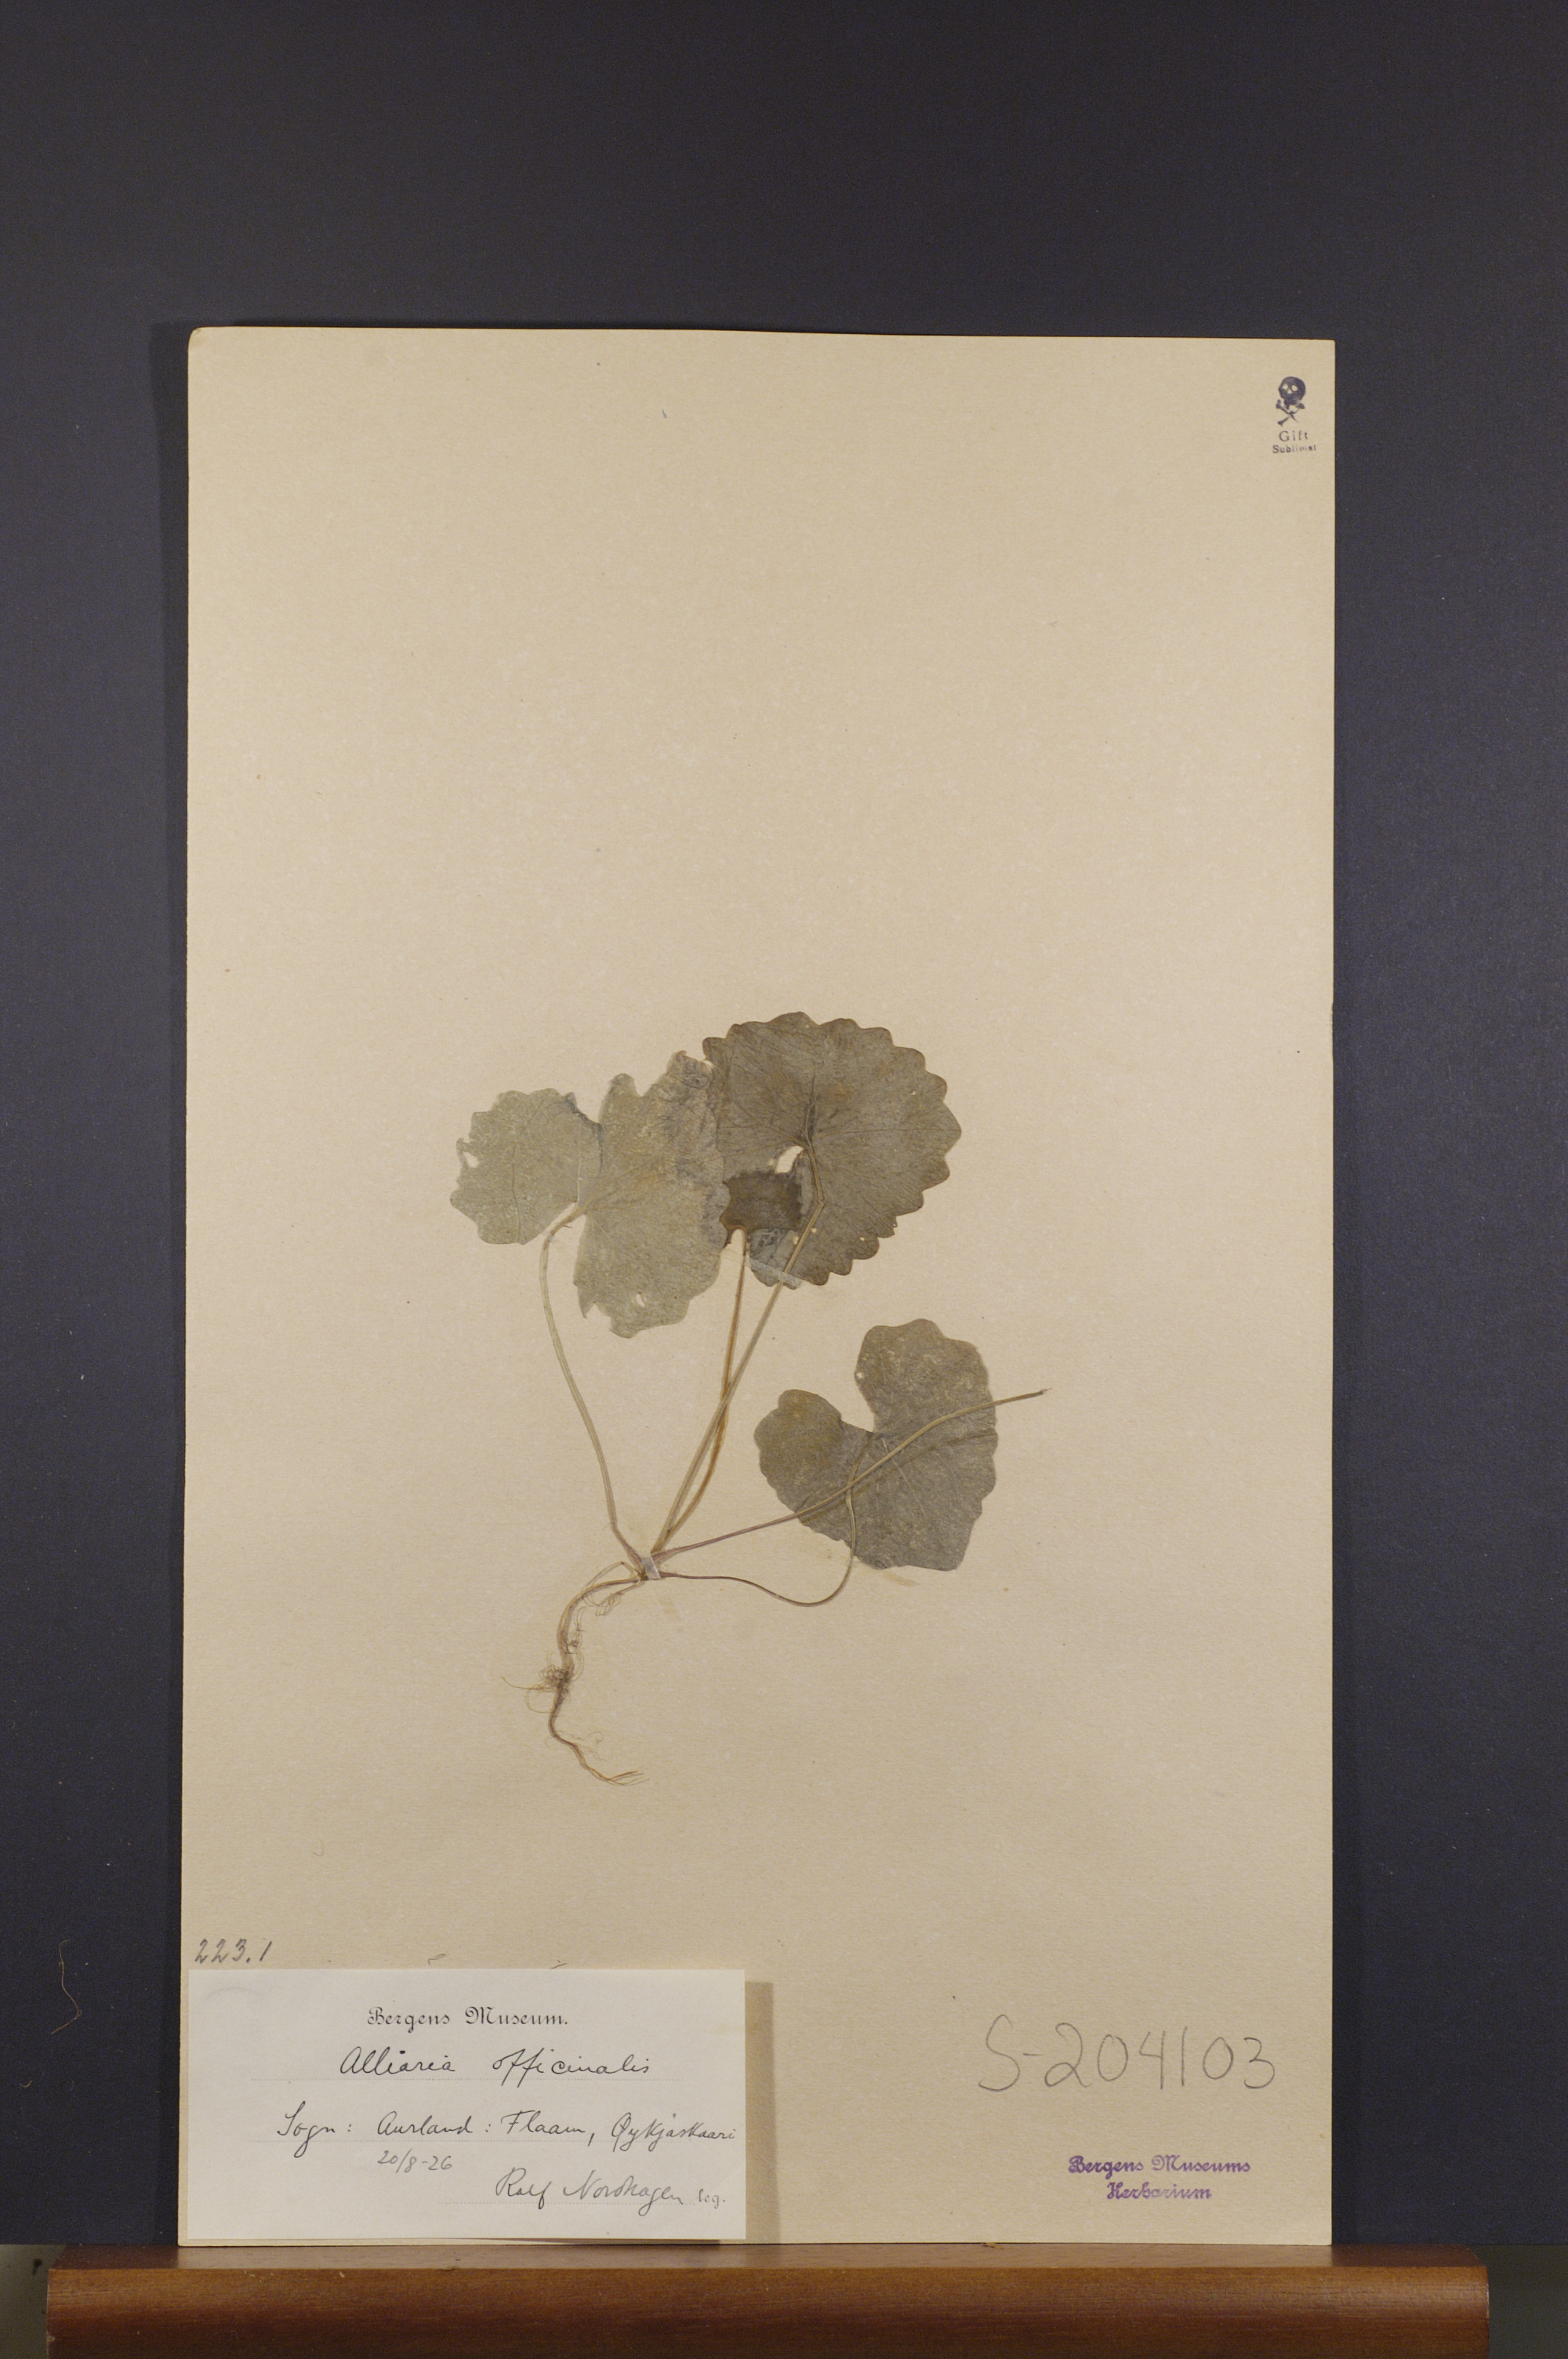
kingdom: Plantae
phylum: Tracheophyta
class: Magnoliopsida
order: Brassicales
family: Brassicaceae
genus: Alliaria
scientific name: Alliaria petiolata
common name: Garlic mustard
